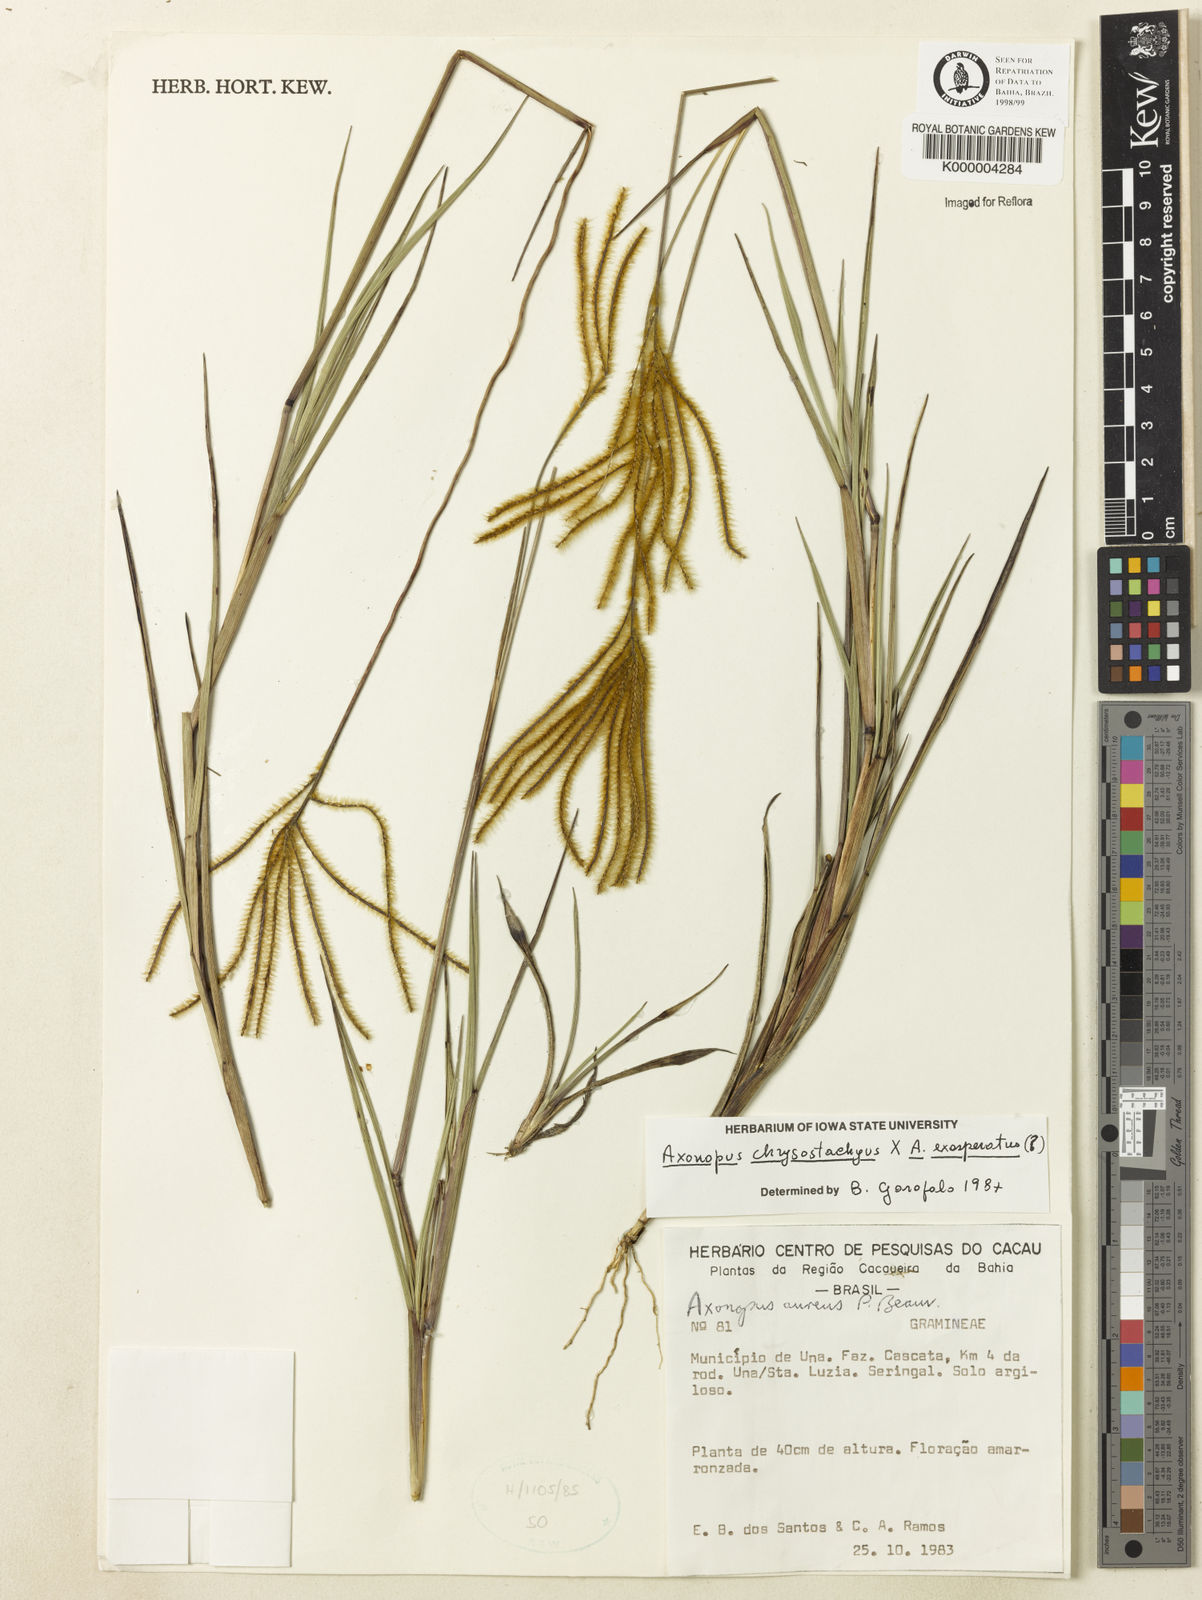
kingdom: Plantae
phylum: Tracheophyta
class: Liliopsida
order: Poales
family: Poaceae
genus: Axonopus
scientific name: Axonopus
